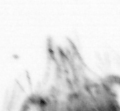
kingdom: Animalia
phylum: Arthropoda
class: Copepoda
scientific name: Copepoda
